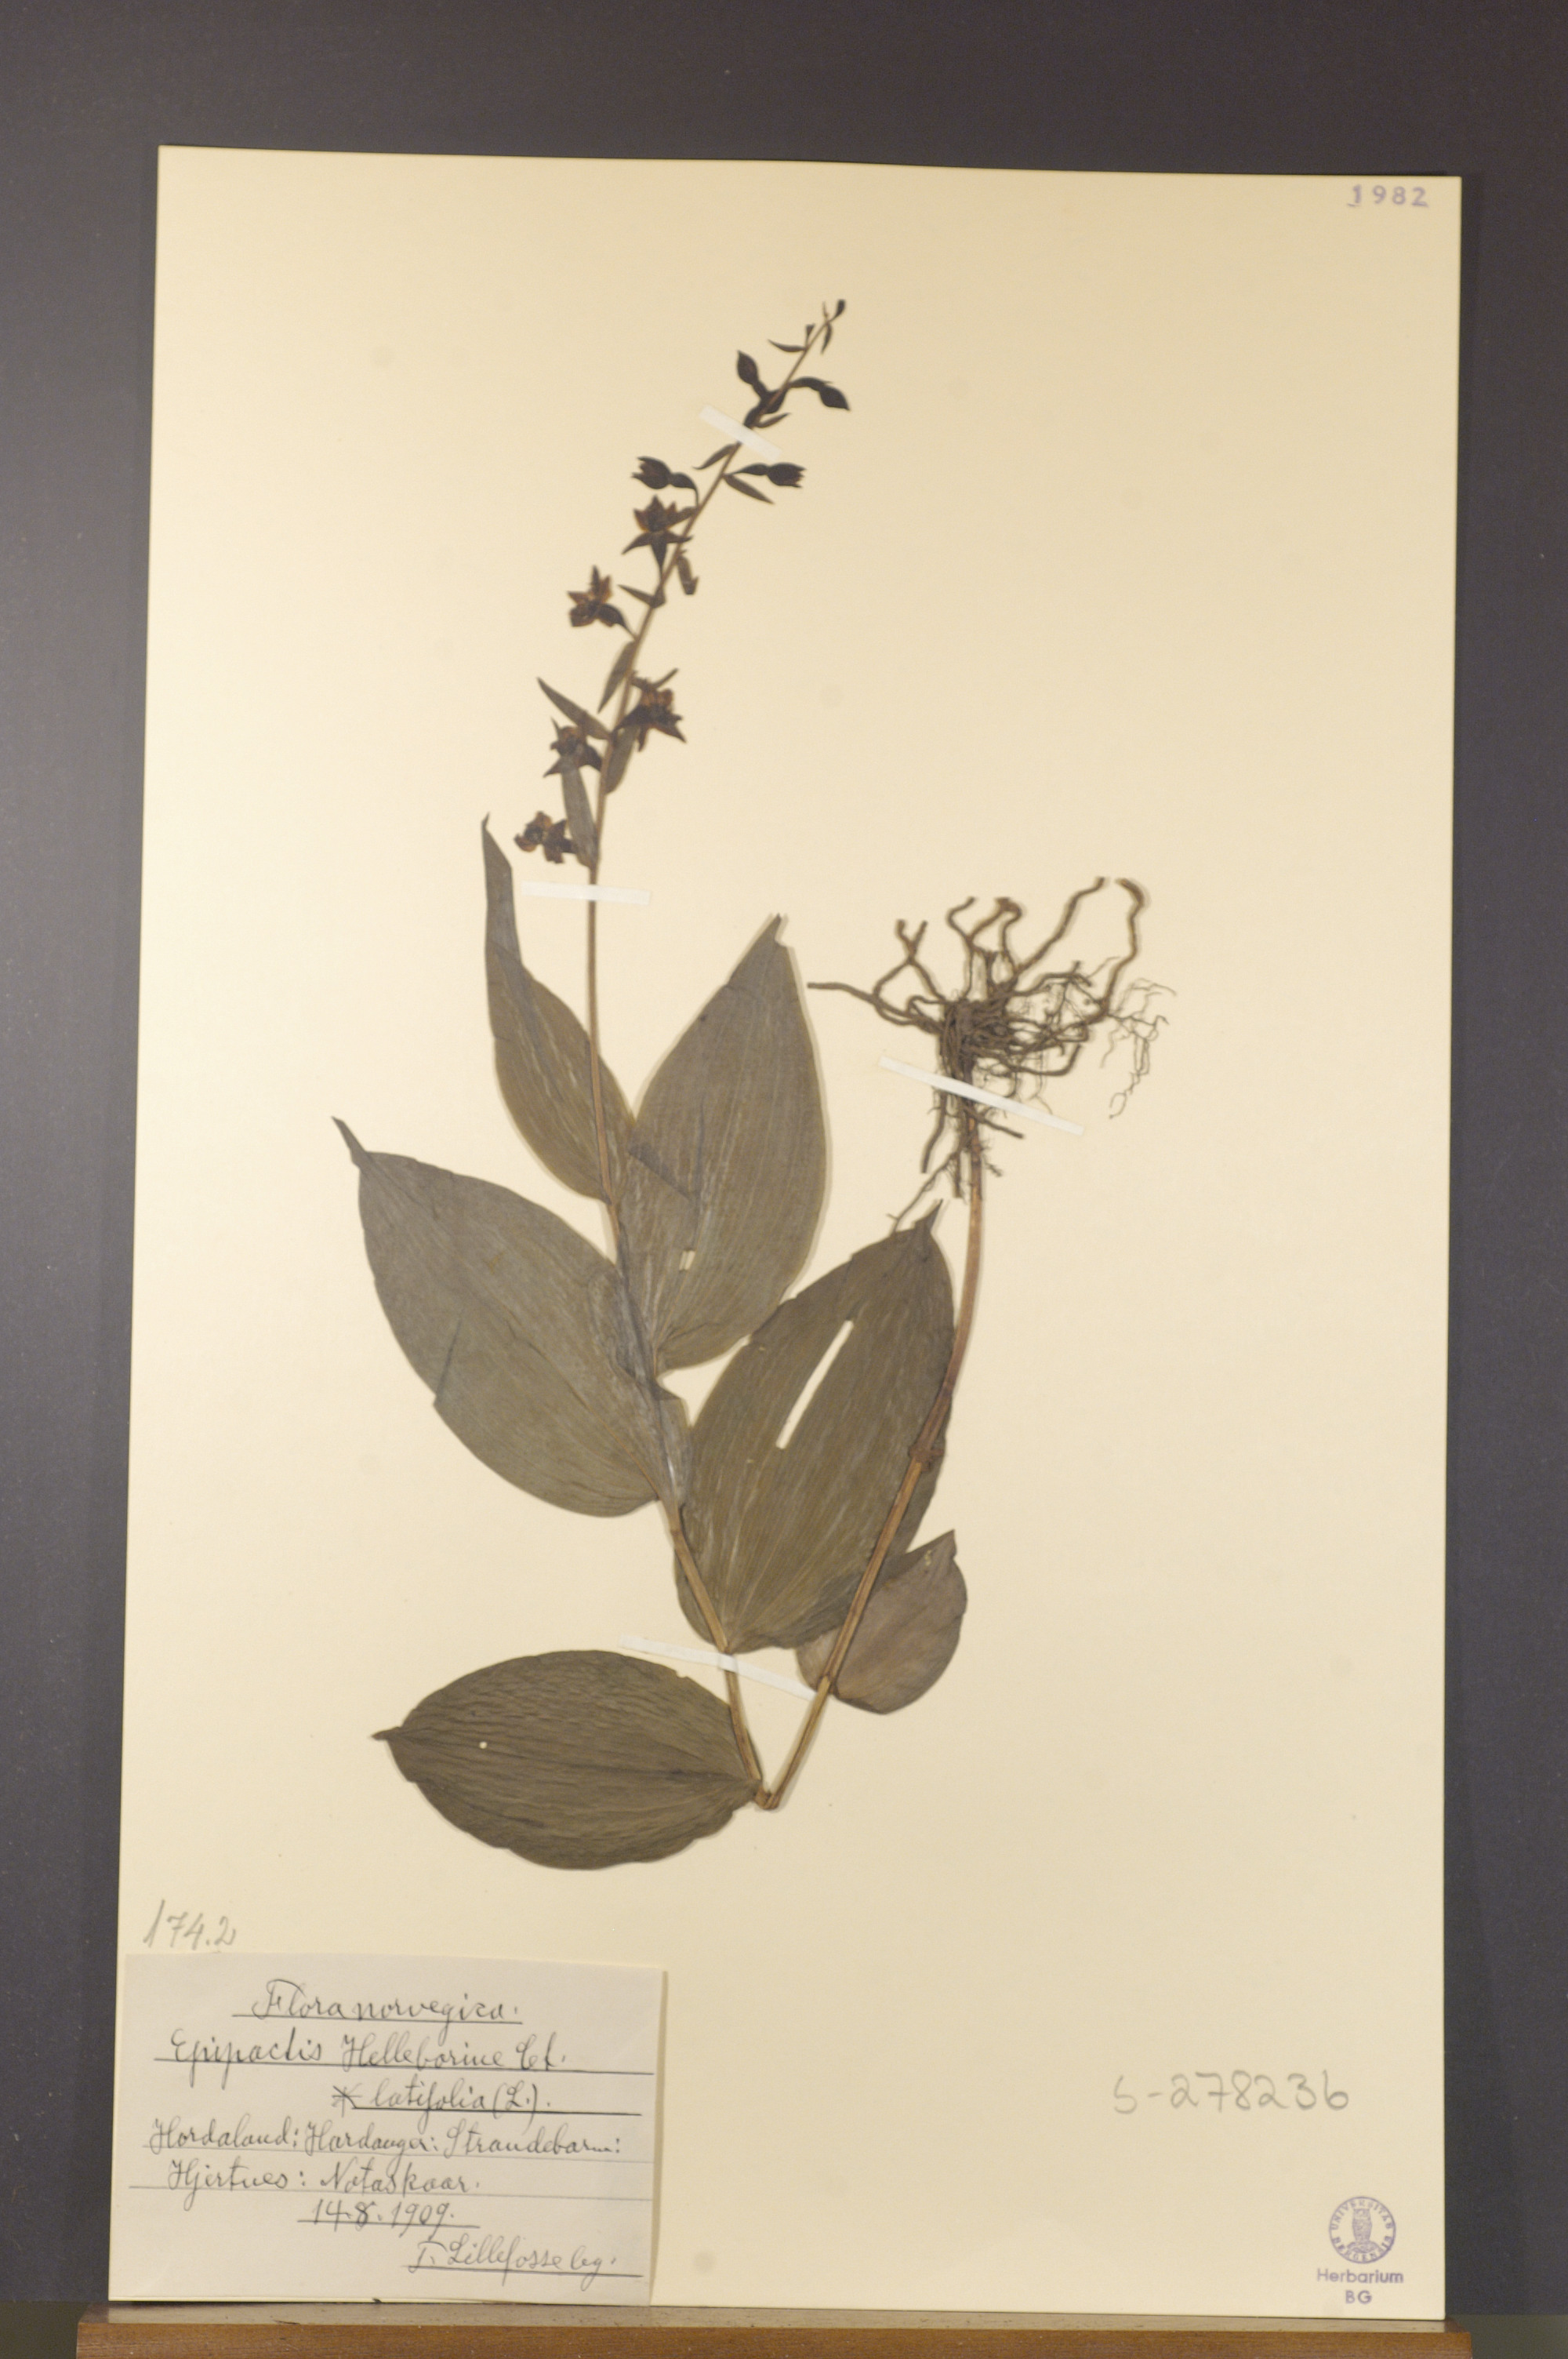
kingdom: Plantae
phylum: Tracheophyta
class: Liliopsida
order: Asparagales
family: Orchidaceae
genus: Epipactis
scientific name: Epipactis helleborine
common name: Broad-leaved helleborine
